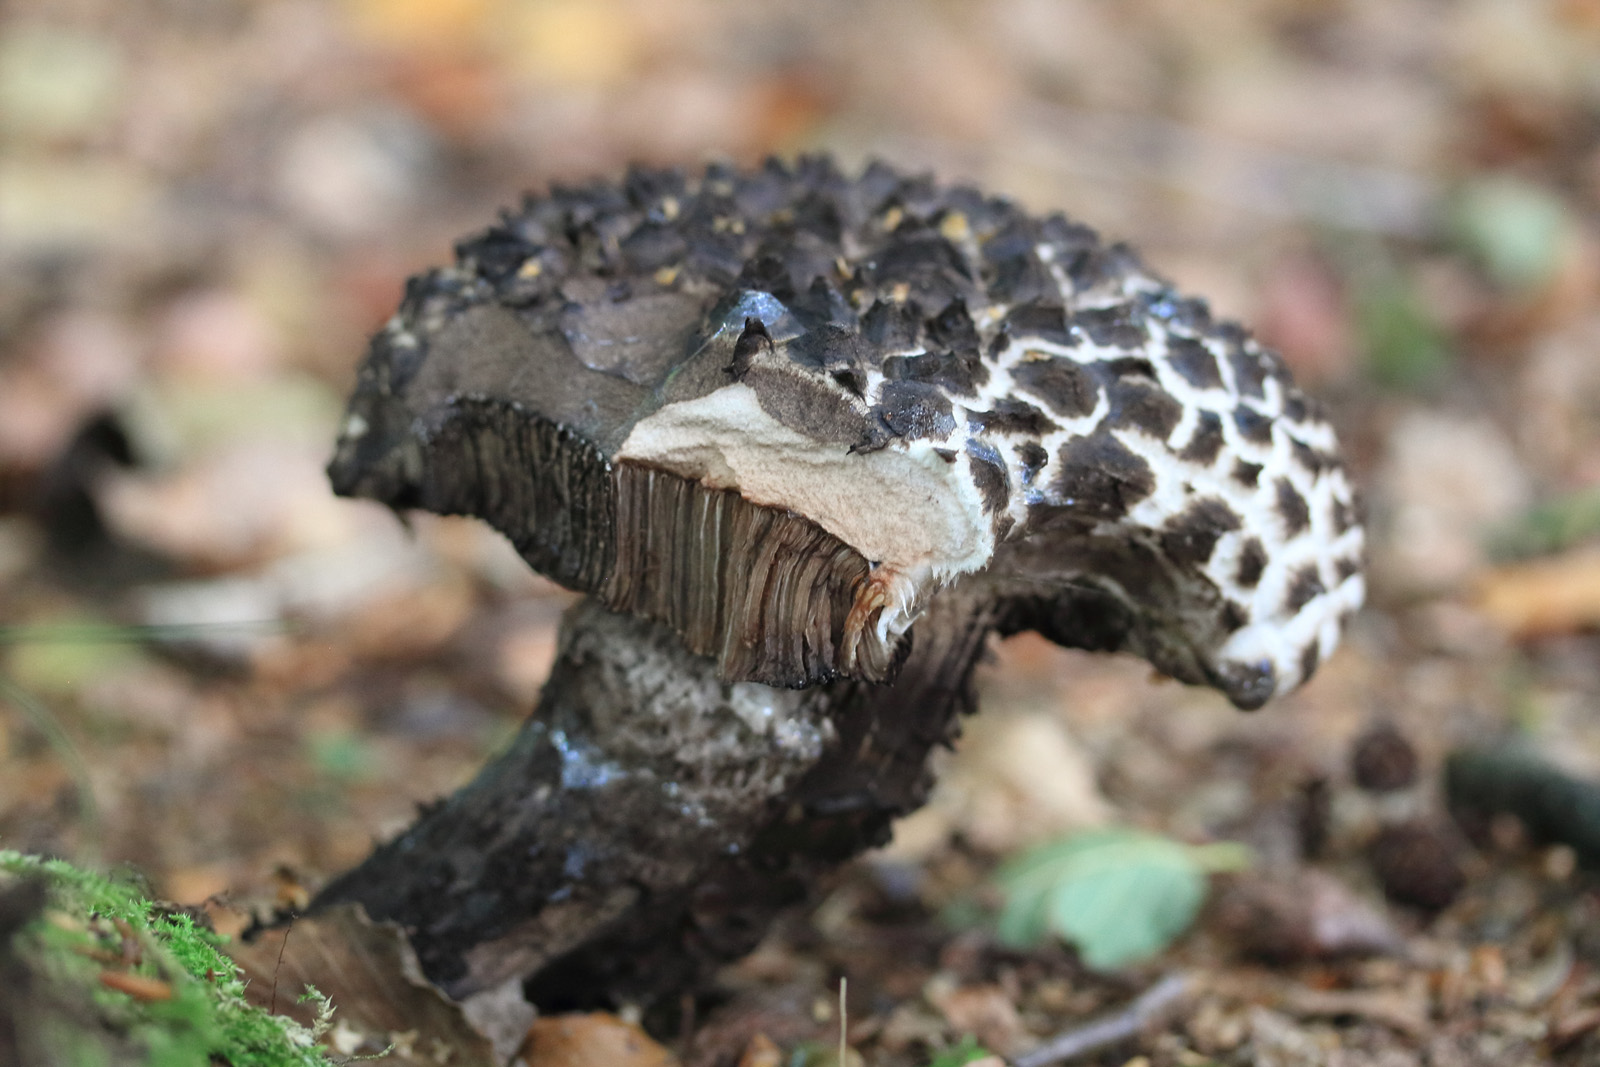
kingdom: Fungi
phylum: Basidiomycota
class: Agaricomycetes
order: Boletales
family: Boletaceae
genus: Strobilomyces
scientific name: Strobilomyces strobilaceus
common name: koglerørhat
